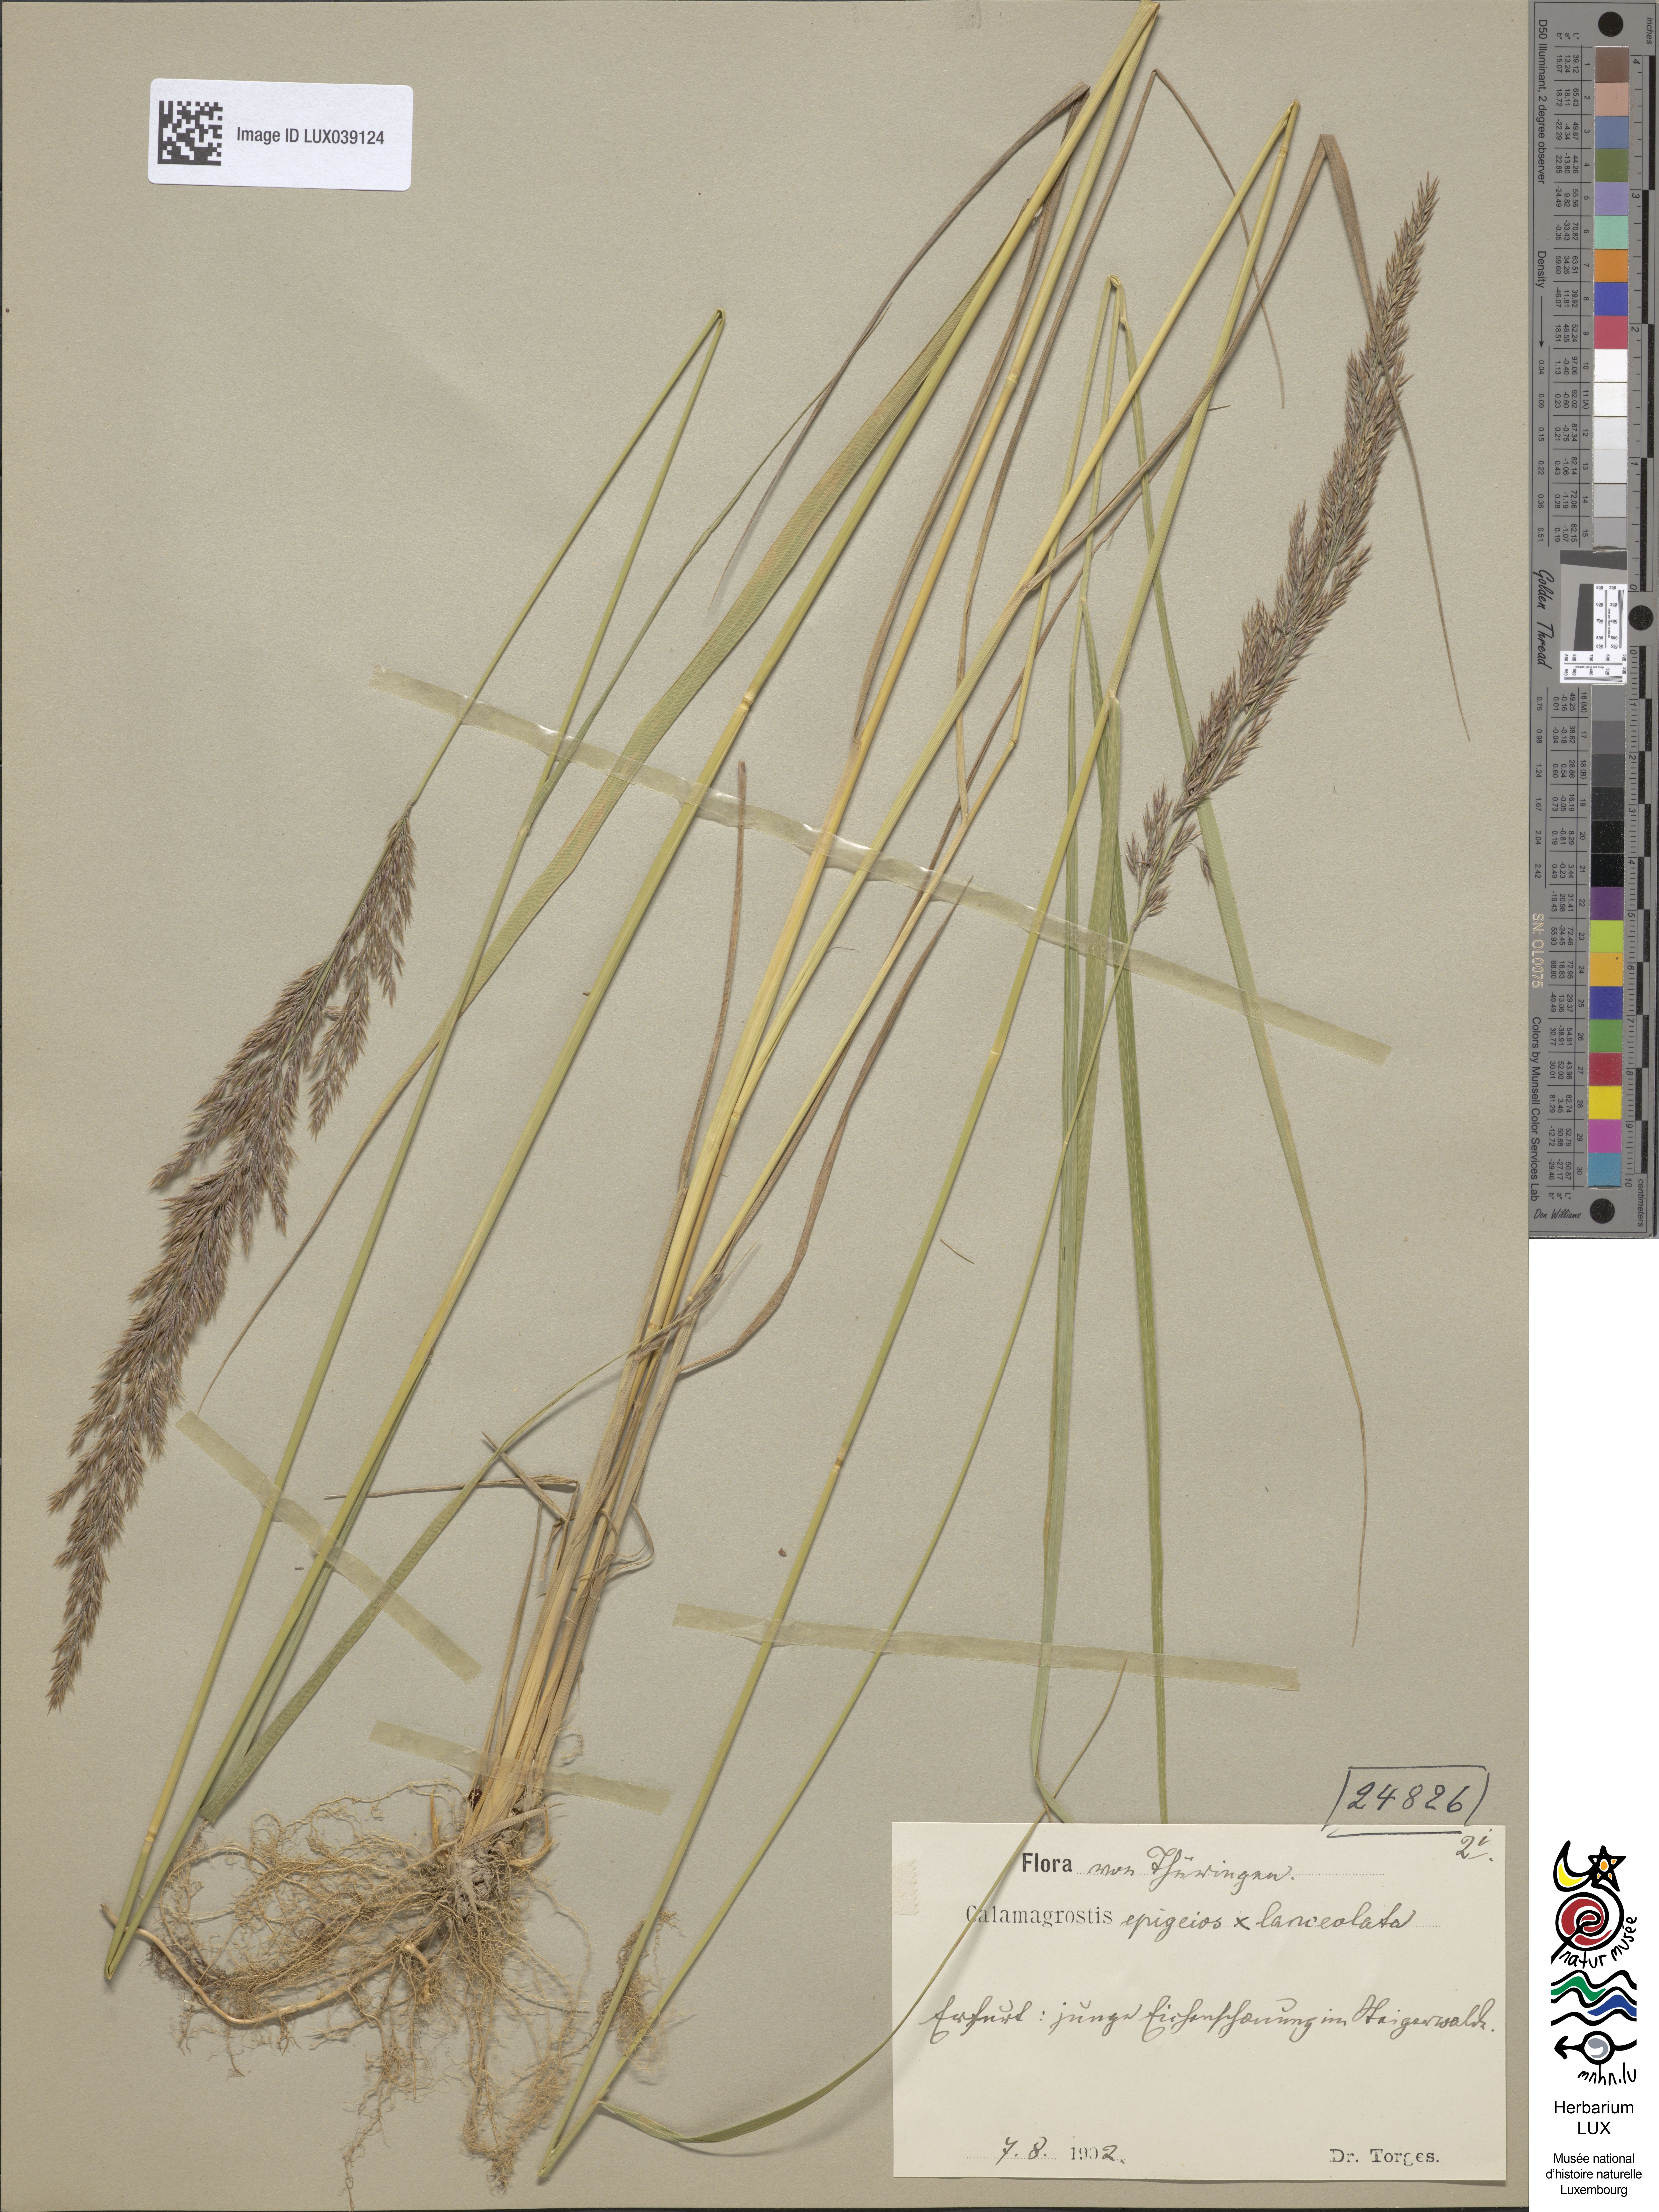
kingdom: Plantae
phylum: Tracheophyta
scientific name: Tracheophyta
